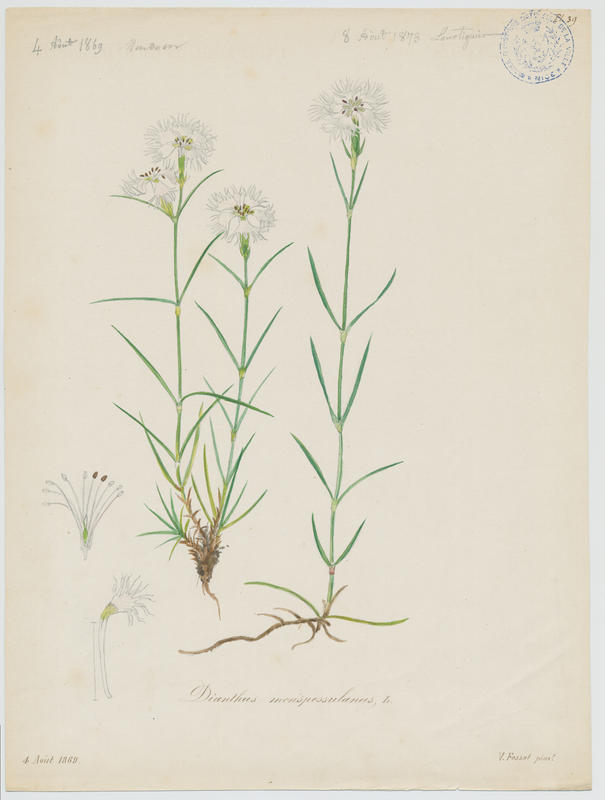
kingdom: Plantae
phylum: Tracheophyta
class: Magnoliopsida
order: Caryophyllales
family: Caryophyllaceae
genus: Dianthus
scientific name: Dianthus hyssopifolius
